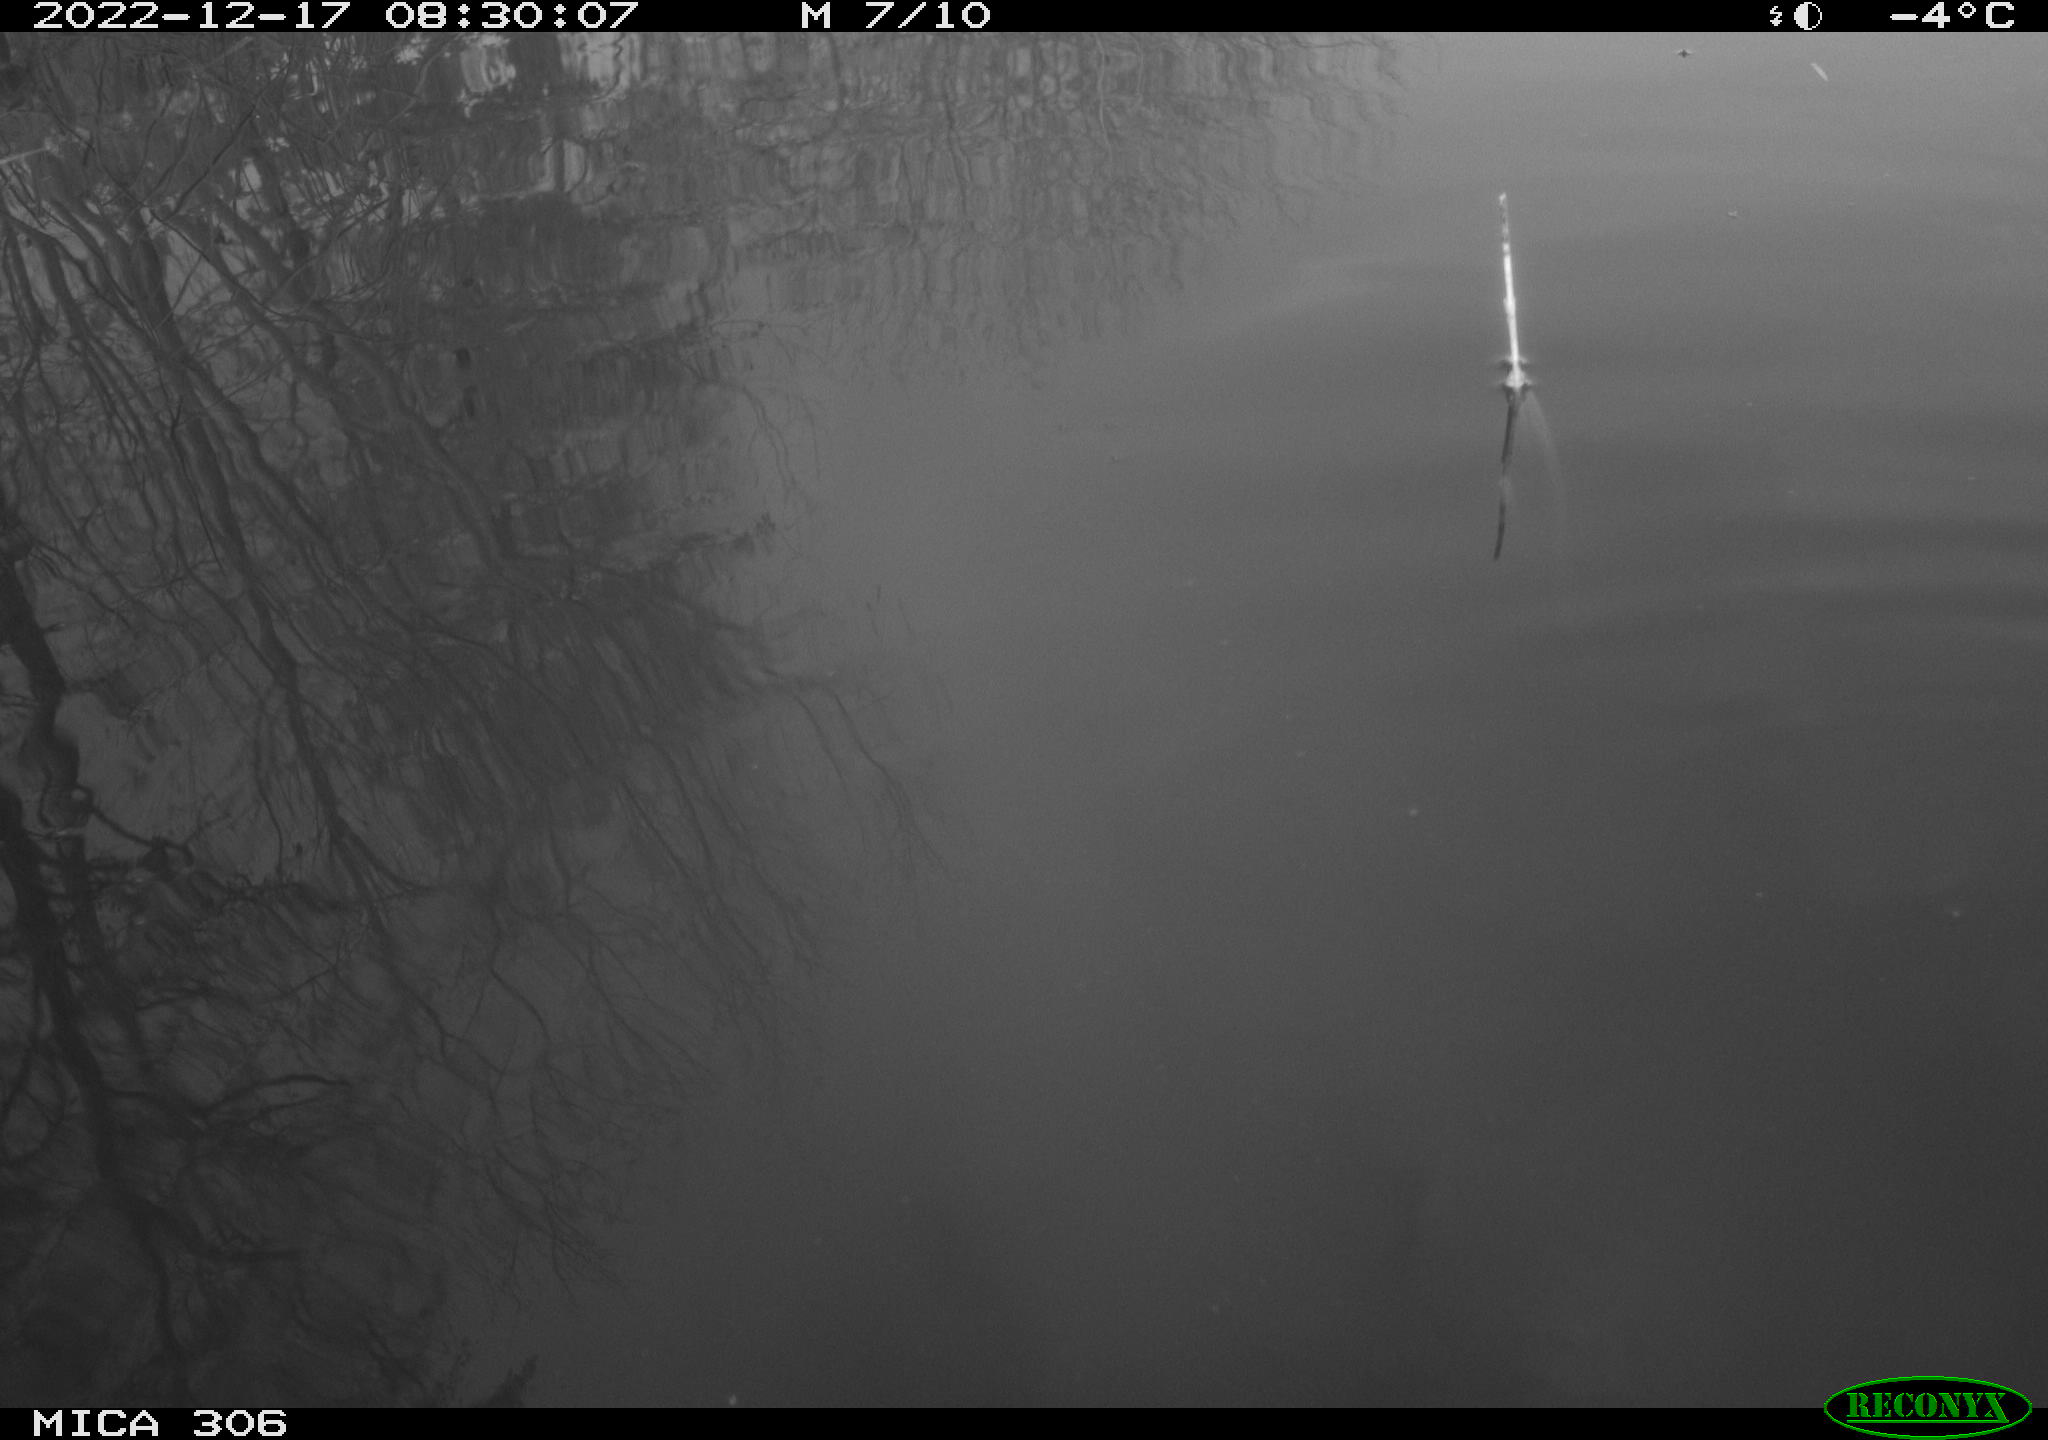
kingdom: Animalia
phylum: Chordata
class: Aves
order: Anseriformes
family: Anatidae
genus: Anas
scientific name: Anas
